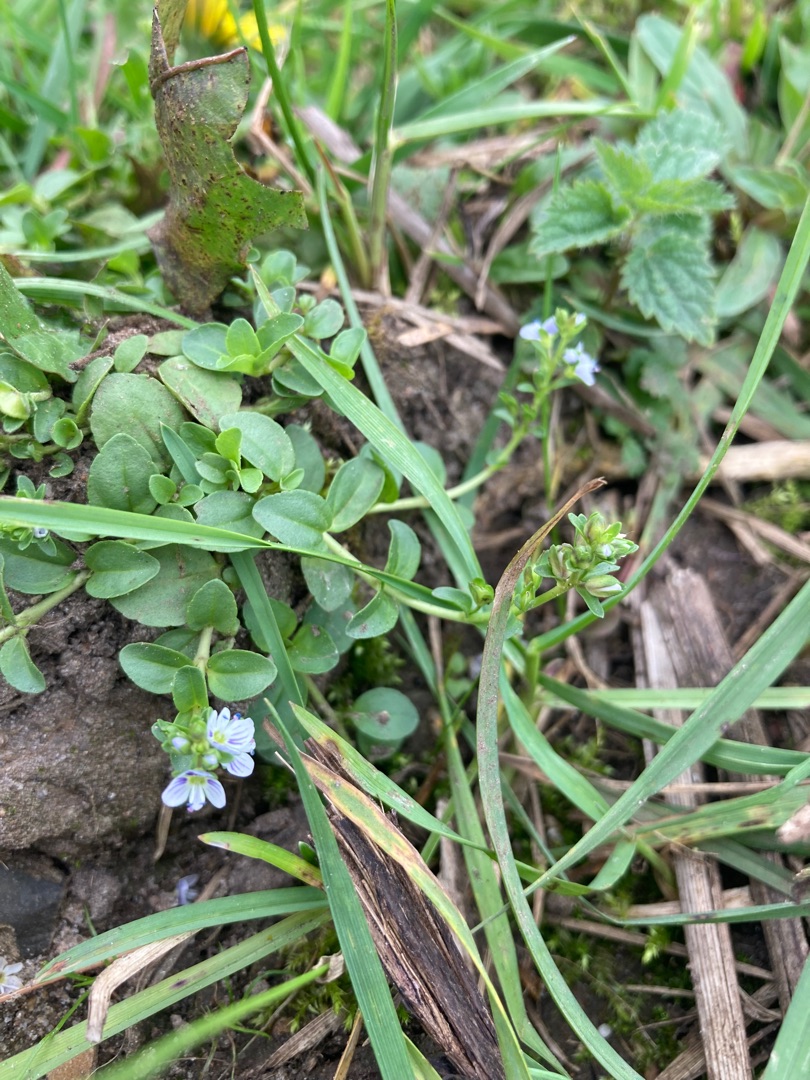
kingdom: Plantae
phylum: Tracheophyta
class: Magnoliopsida
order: Lamiales
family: Plantaginaceae
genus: Veronica
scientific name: Veronica serpyllifolia
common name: Glat ærenpris
